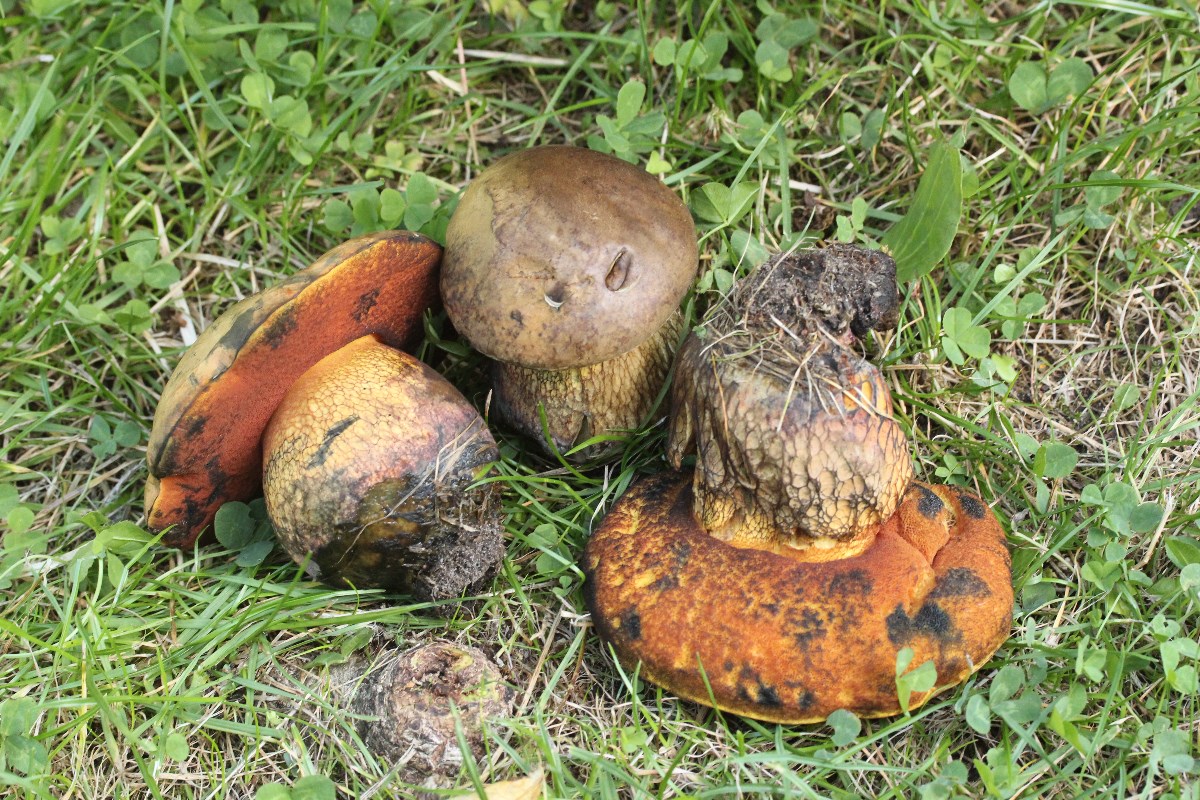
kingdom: Fungi
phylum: Basidiomycota
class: Agaricomycetes
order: Boletales
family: Boletaceae
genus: Suillellus
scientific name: Suillellus luridus
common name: netstokket indigorørhat
